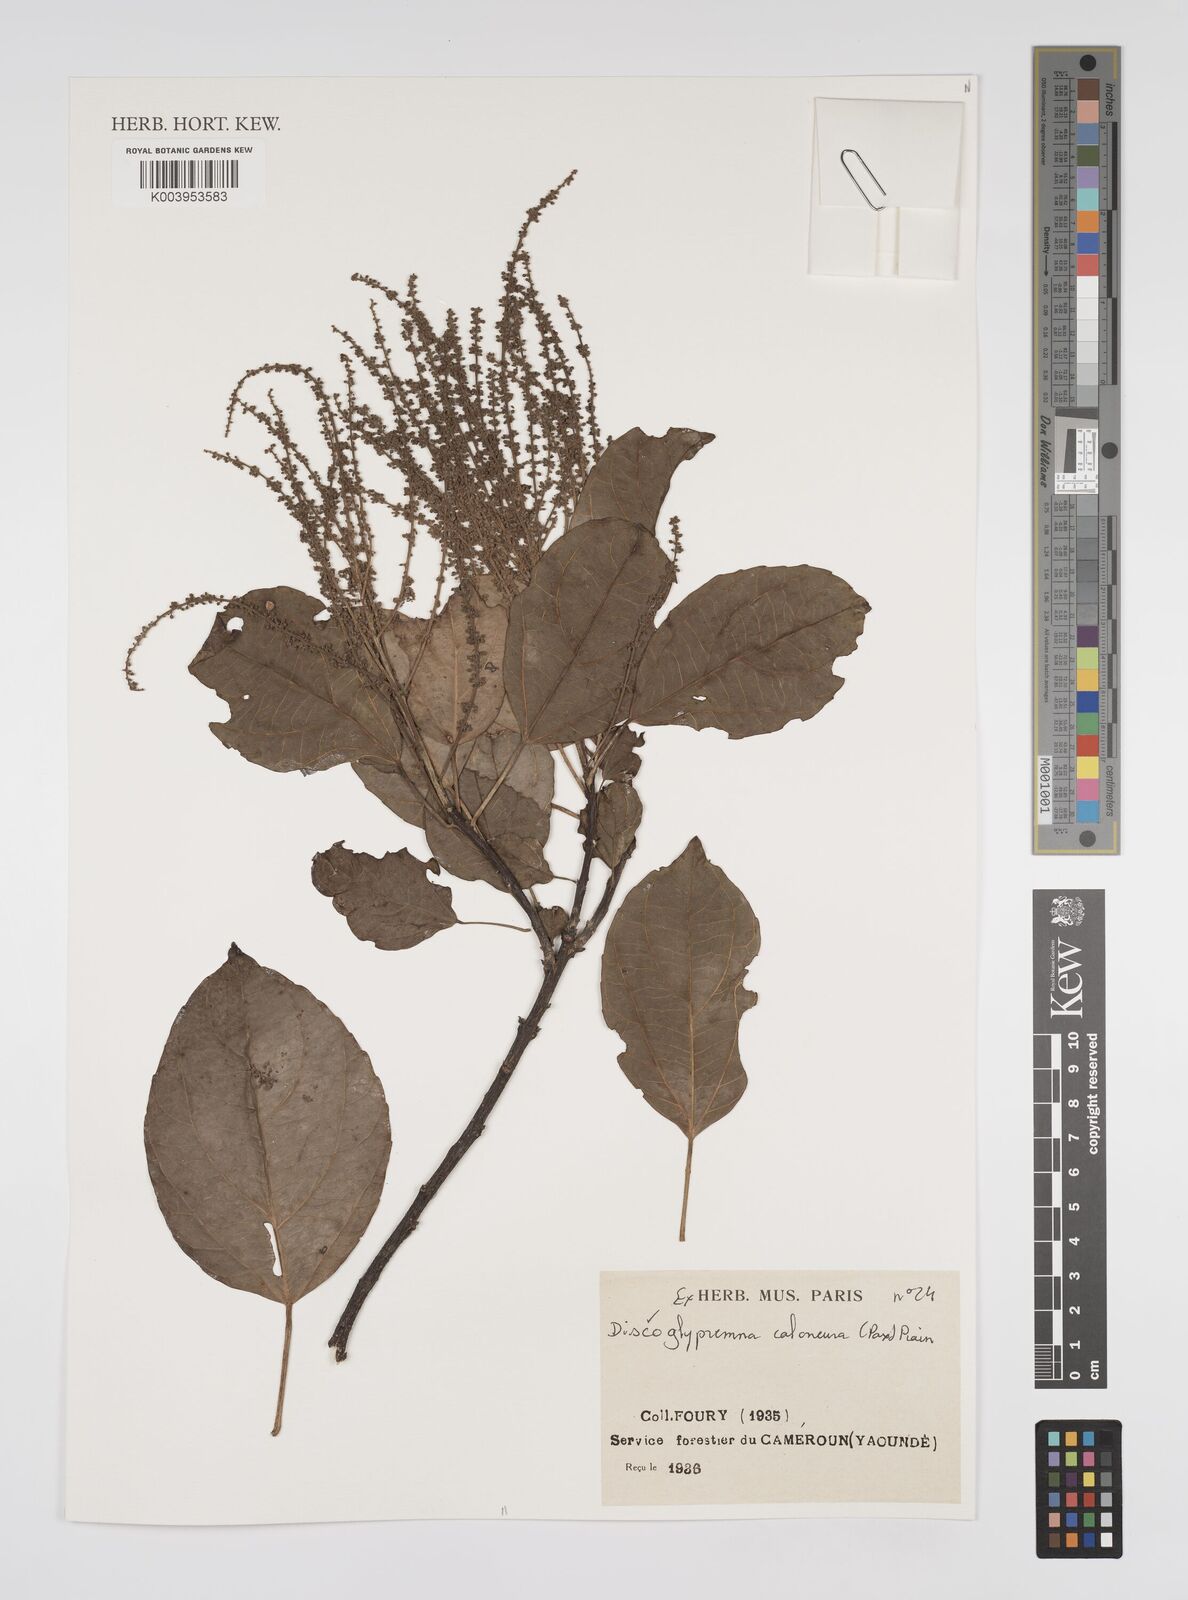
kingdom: Plantae
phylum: Tracheophyta
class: Magnoliopsida
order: Malpighiales
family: Euphorbiaceae
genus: Discoglypremna
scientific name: Discoglypremna caloneura
